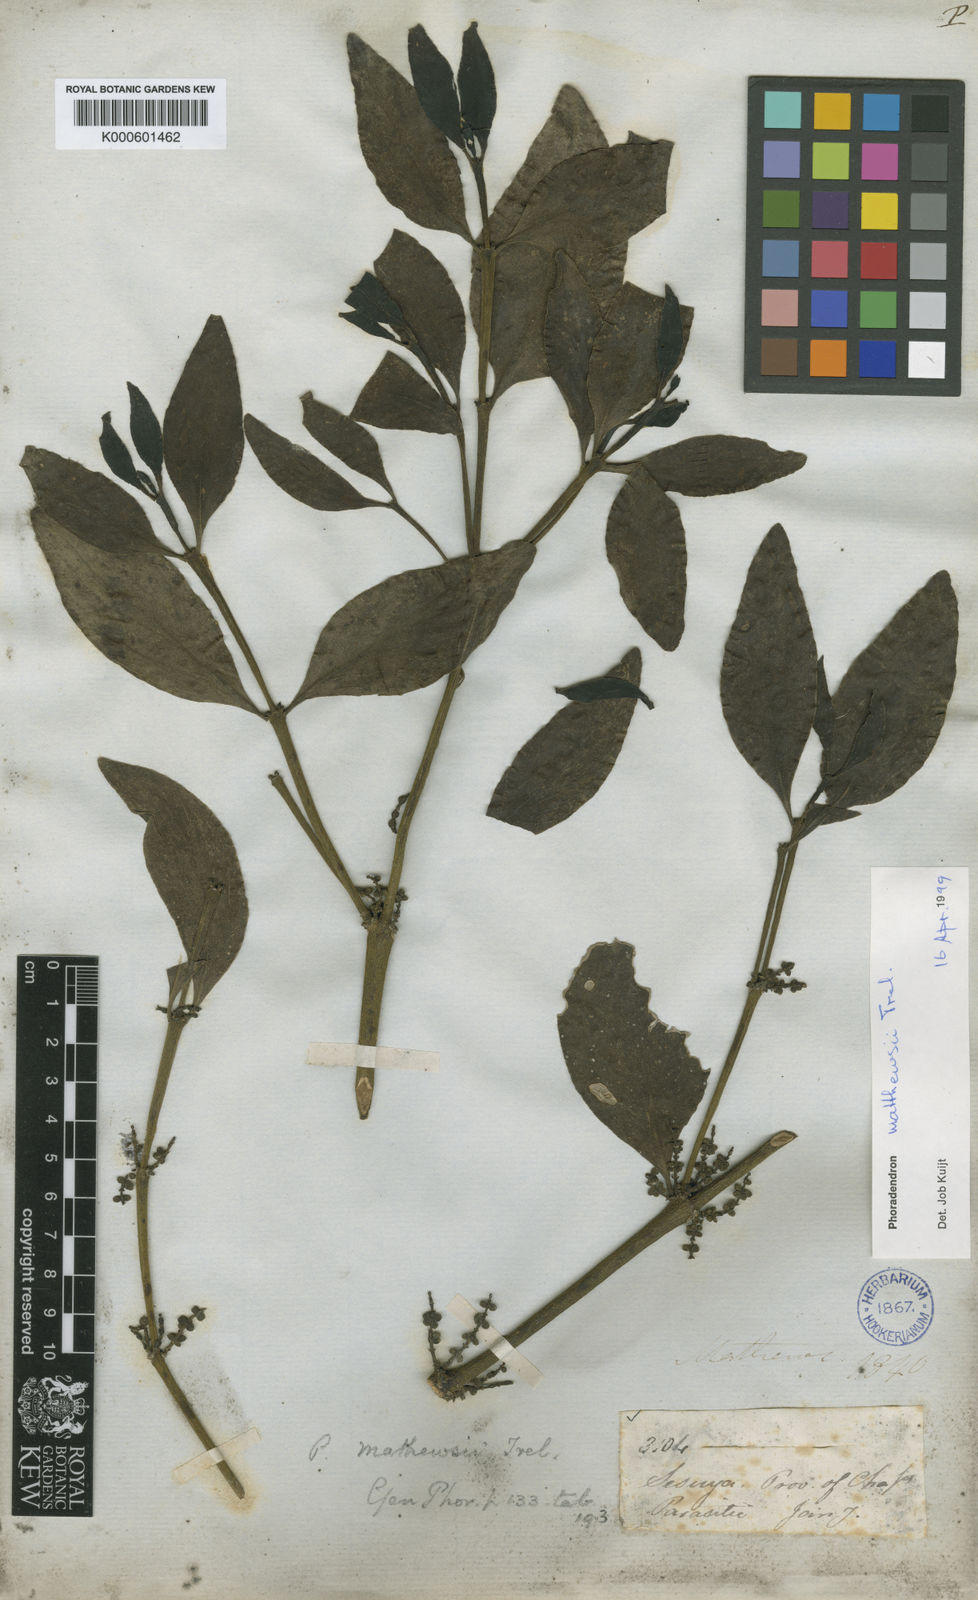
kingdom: Plantae
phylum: Tracheophyta
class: Magnoliopsida
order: Santalales
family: Viscaceae
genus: Phoradendron
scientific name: Phoradendron mathewsii
